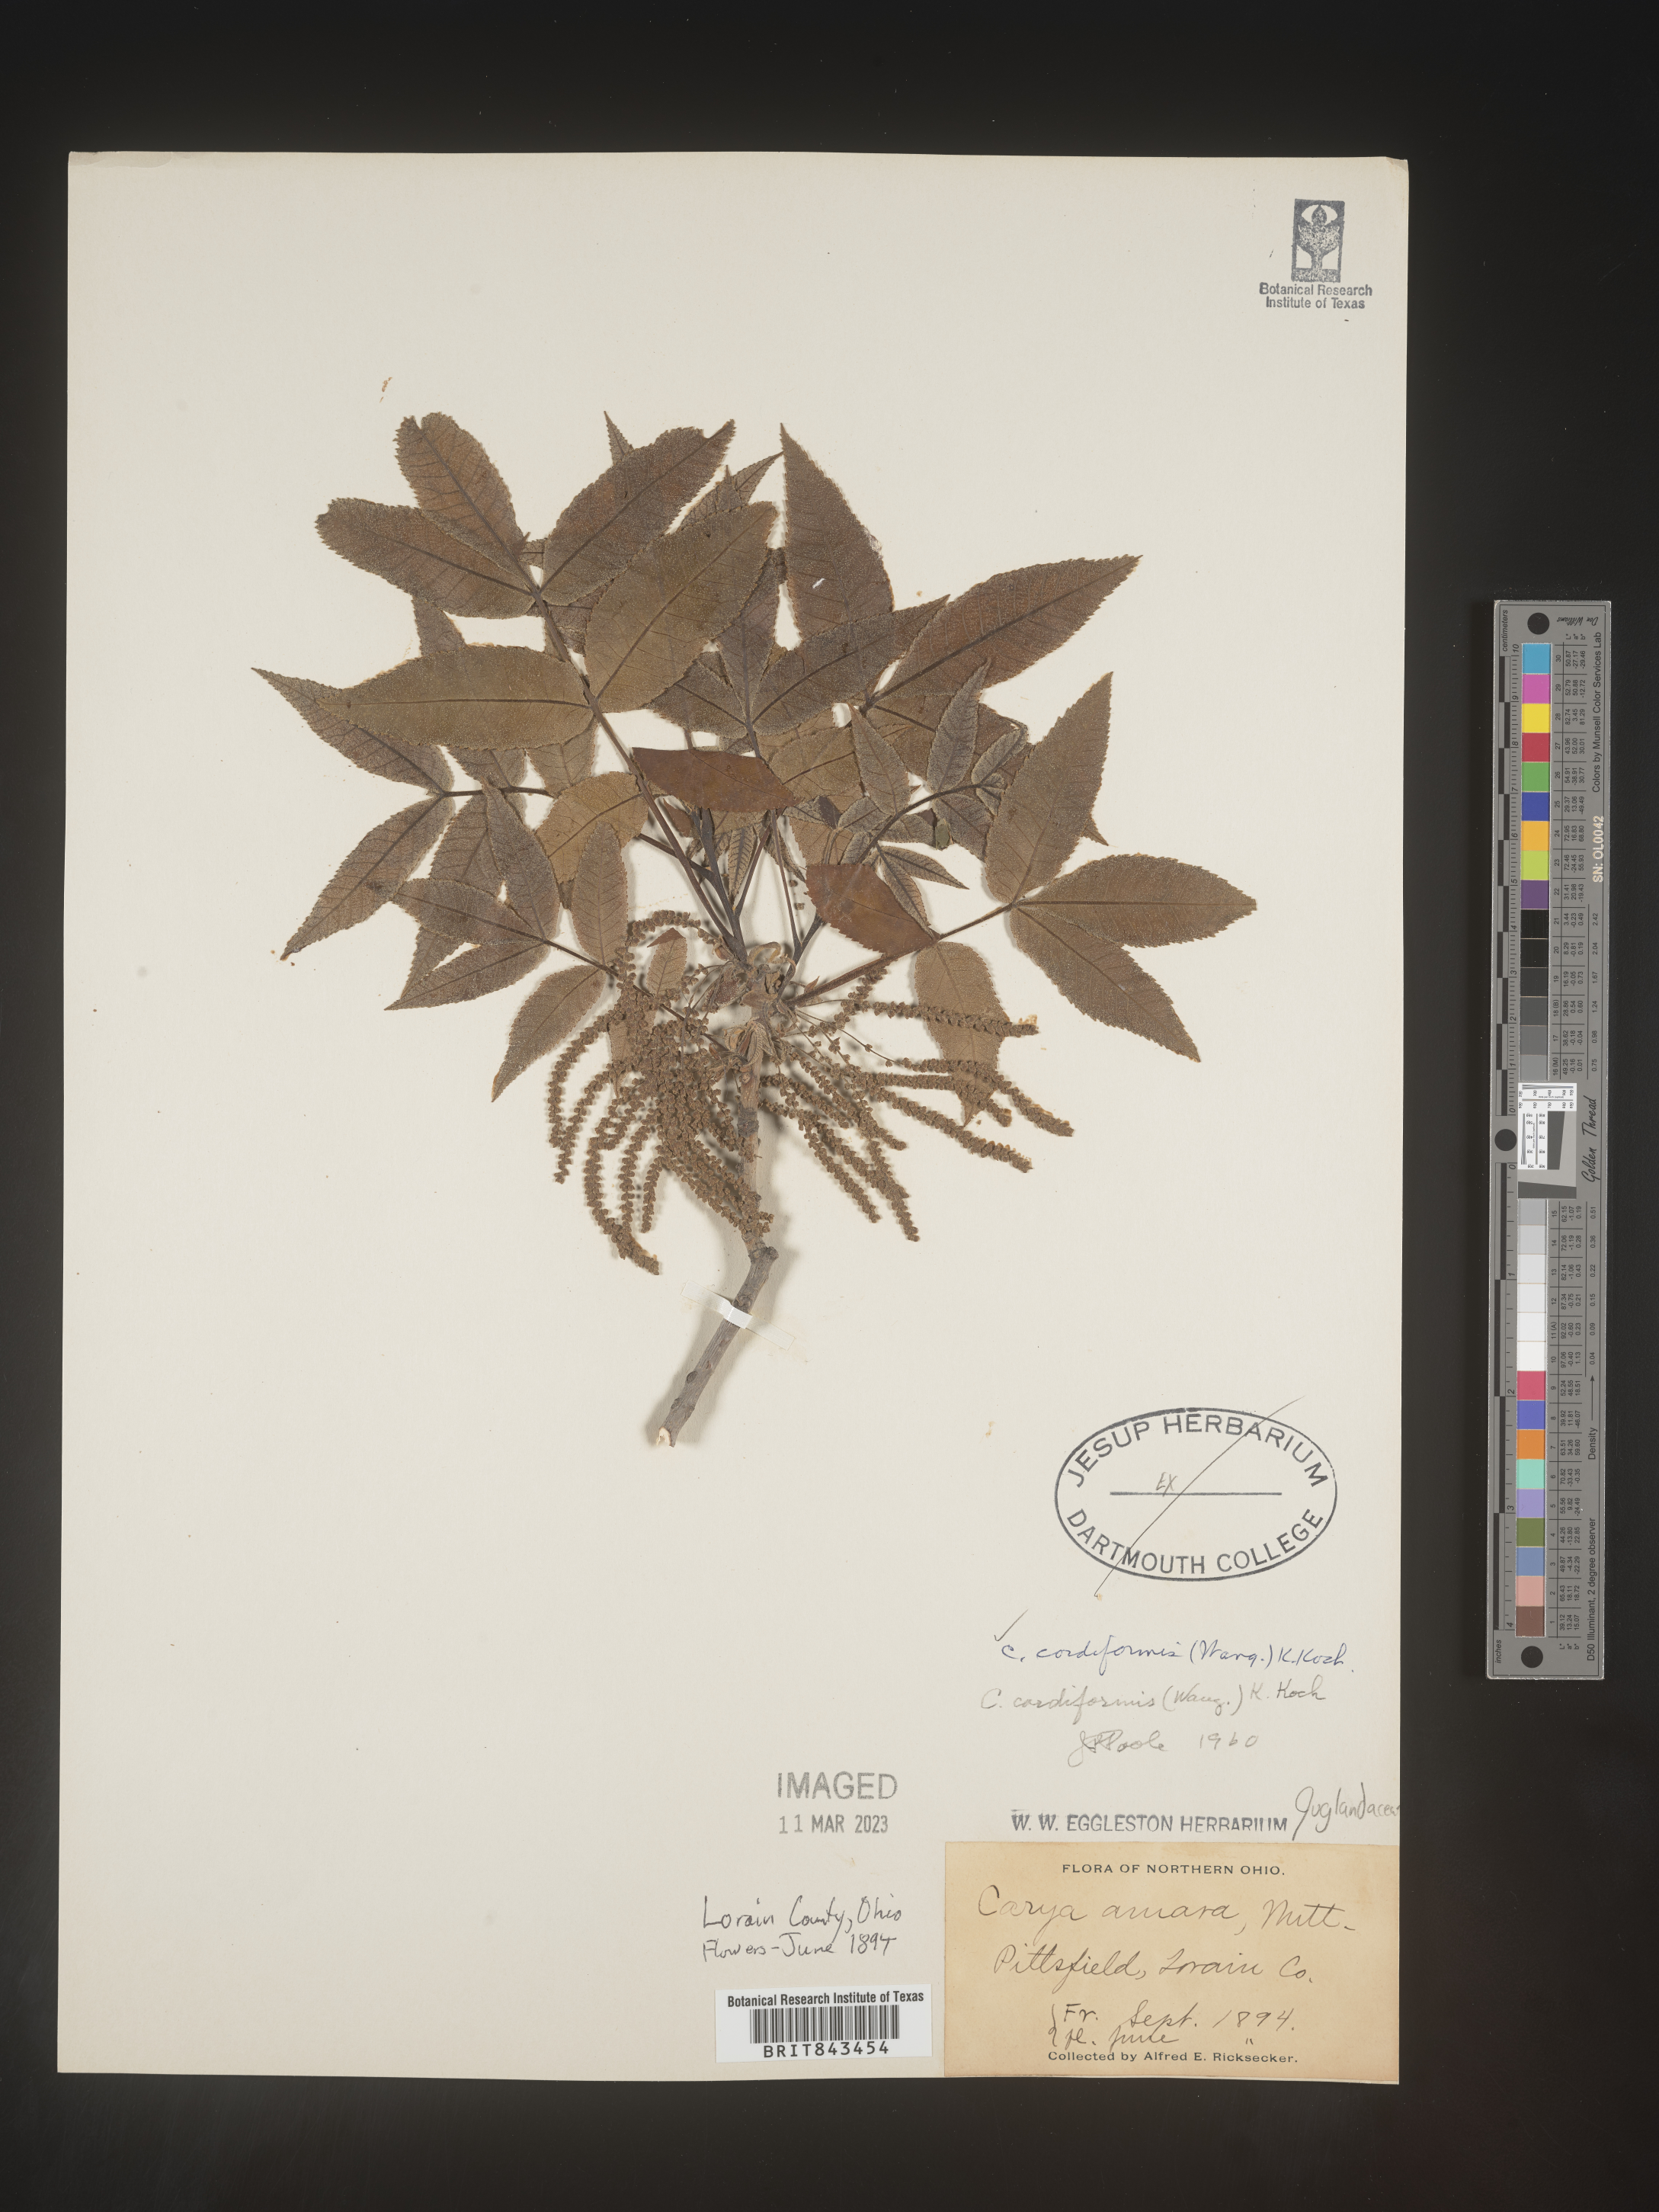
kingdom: Plantae
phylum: Tracheophyta
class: Magnoliopsida
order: Fagales
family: Juglandaceae
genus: Carya
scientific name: Carya cordiformis
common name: Bitternut hickory
